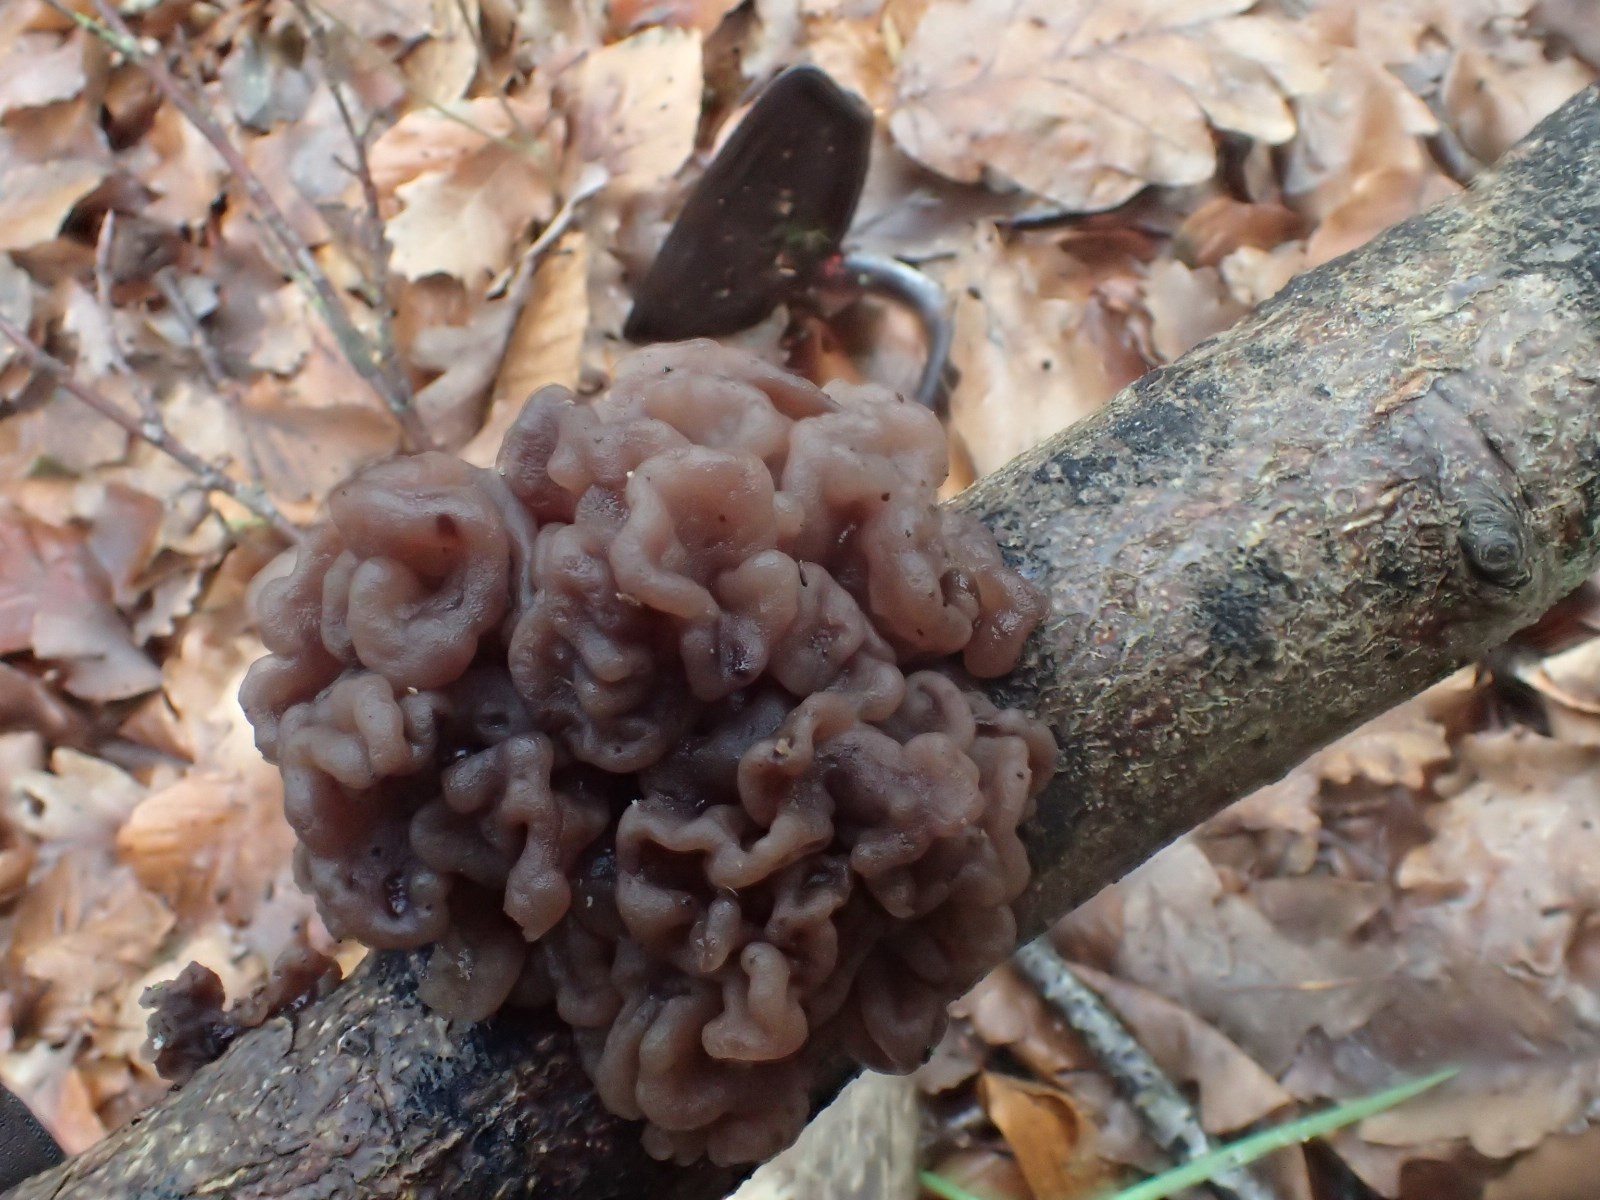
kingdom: Fungi
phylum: Ascomycota
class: Leotiomycetes
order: Helotiales
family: Gelatinodiscaceae
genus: Ascotremella
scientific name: Ascotremella faginea
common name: hjerne-bævreskive
